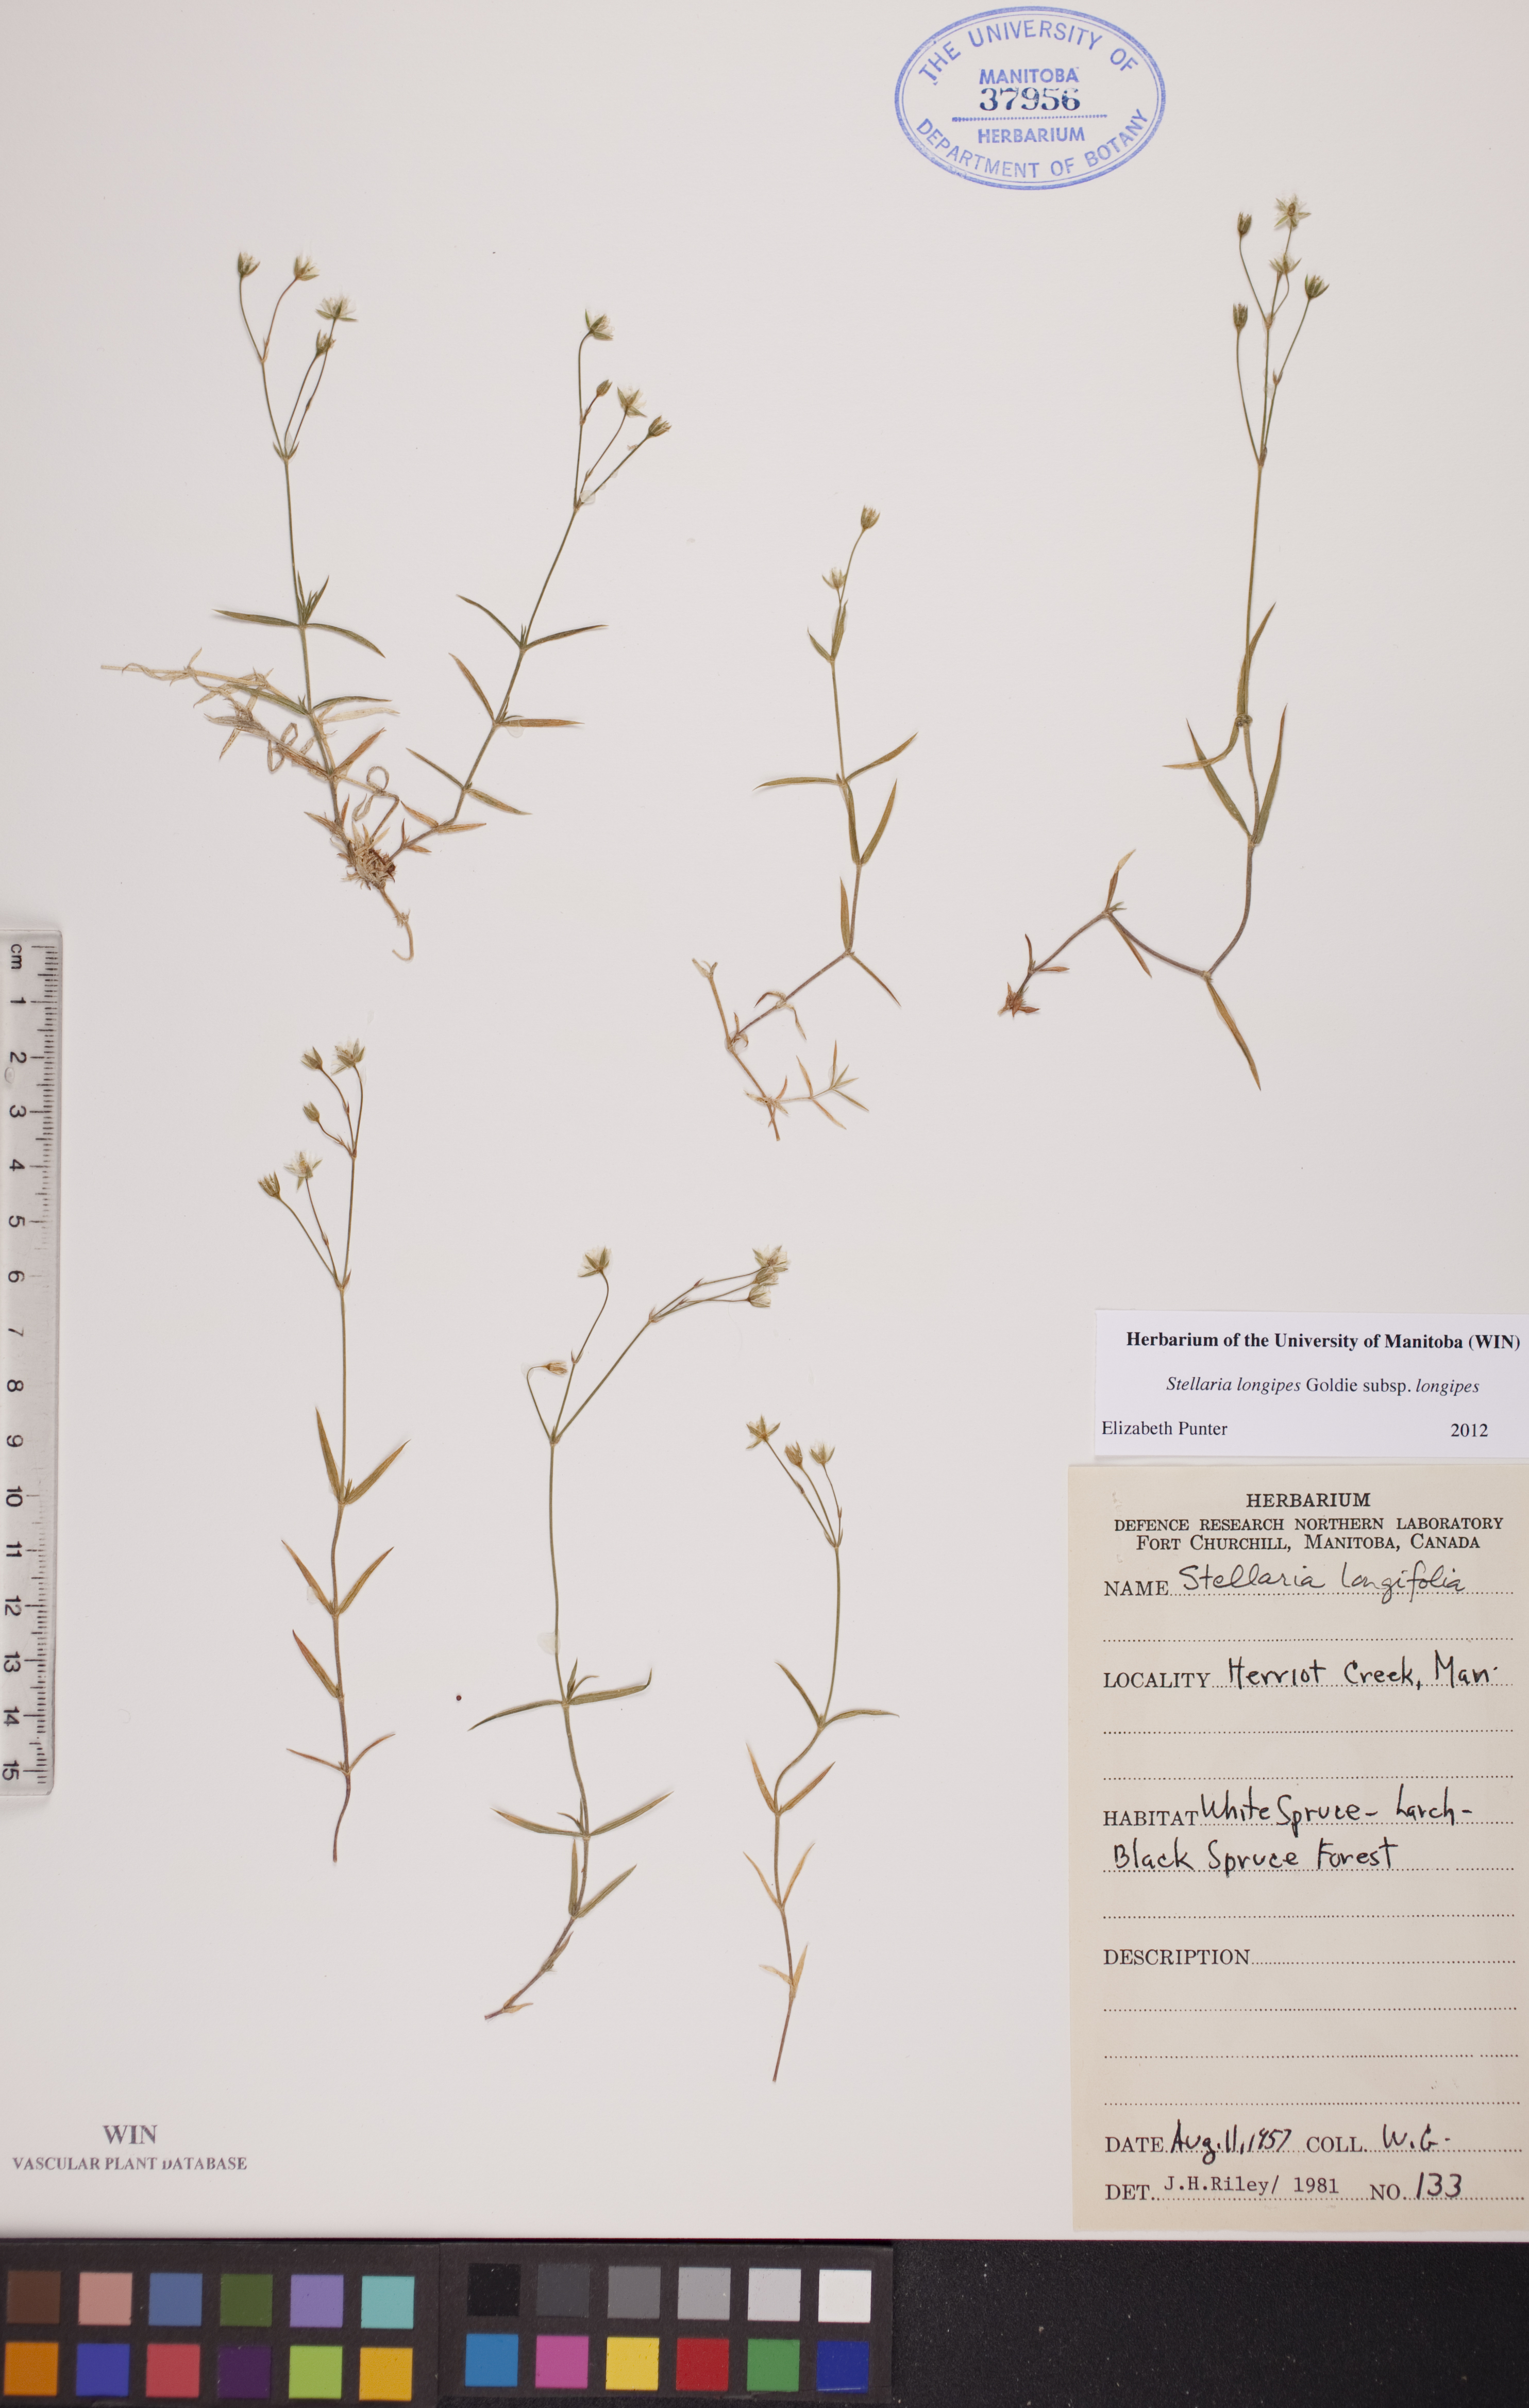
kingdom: Plantae
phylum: Tracheophyta
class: Magnoliopsida
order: Caryophyllales
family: Caryophyllaceae
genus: Stellaria
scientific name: Stellaria longipes
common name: Goldie's starwort
